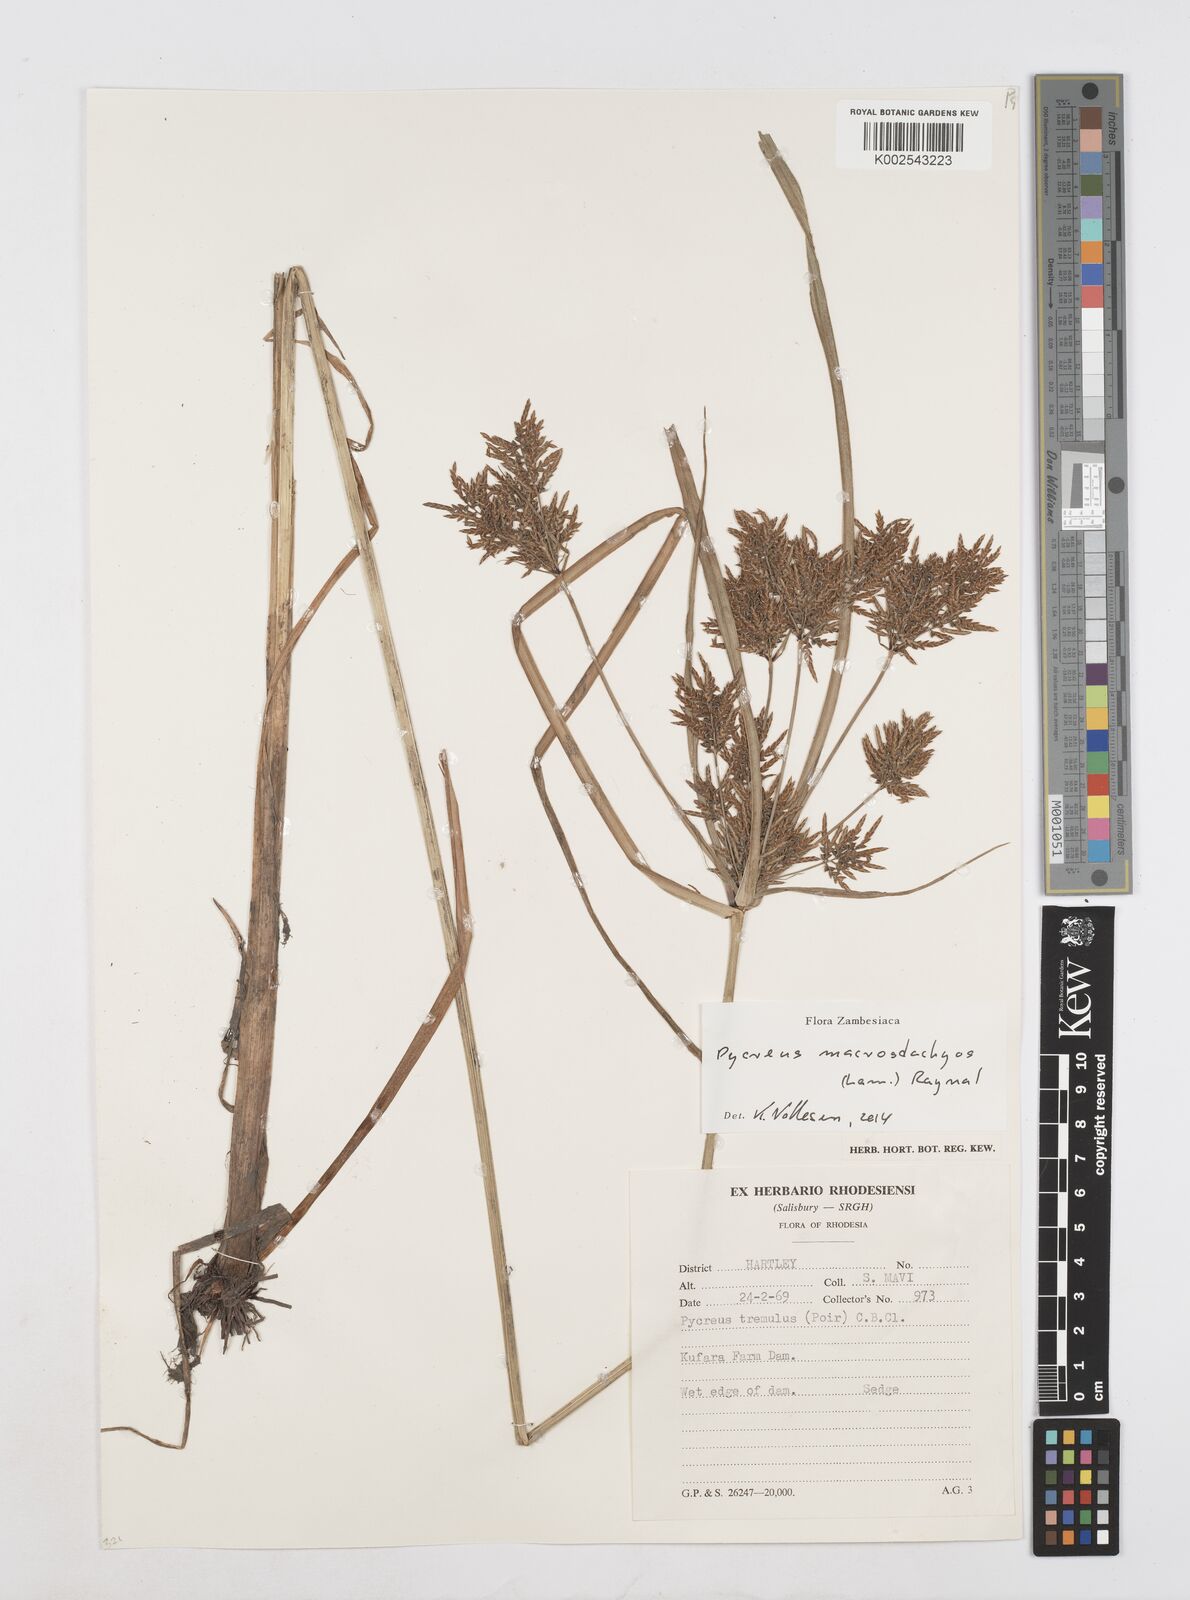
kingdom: Plantae
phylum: Tracheophyta
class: Liliopsida
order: Poales
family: Cyperaceae
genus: Cyperus
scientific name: Cyperus macrostachyos
